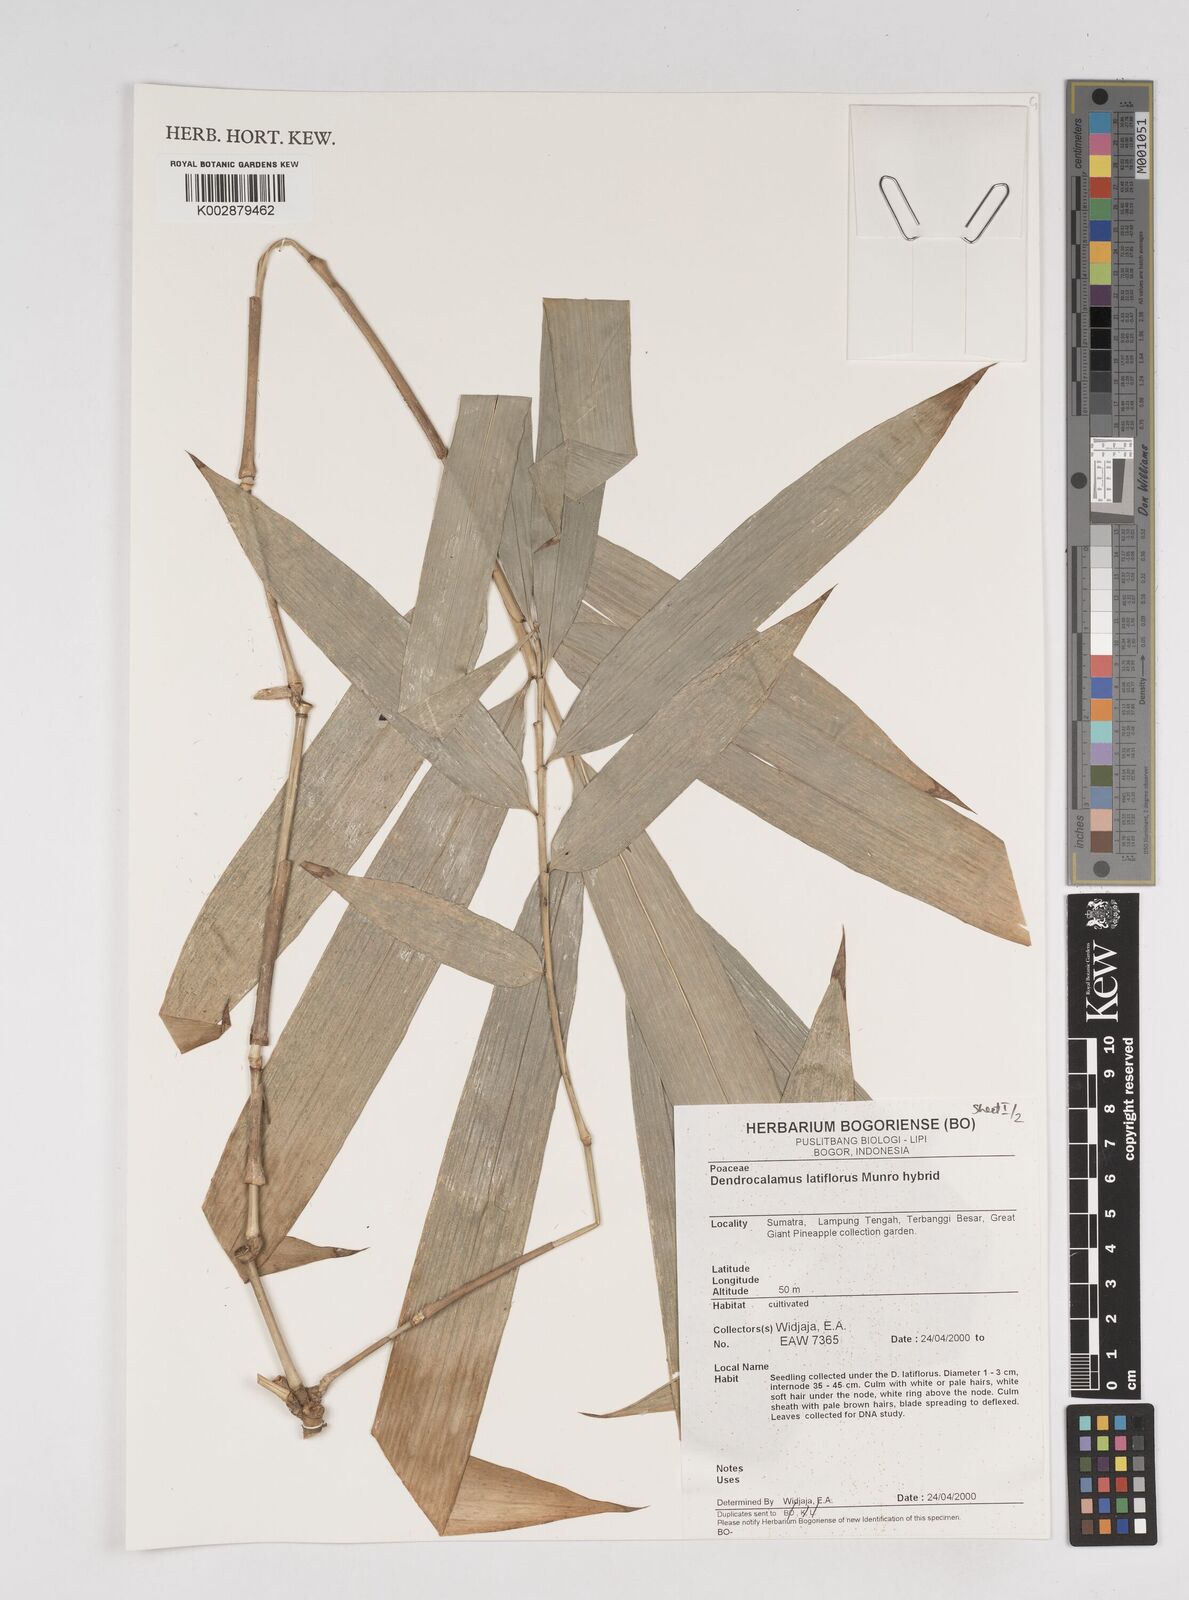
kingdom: Plantae
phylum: Tracheophyta
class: Liliopsida
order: Poales
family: Poaceae
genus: Dendrocalamus
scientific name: Dendrocalamus latiflorus
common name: Giant bamboo
